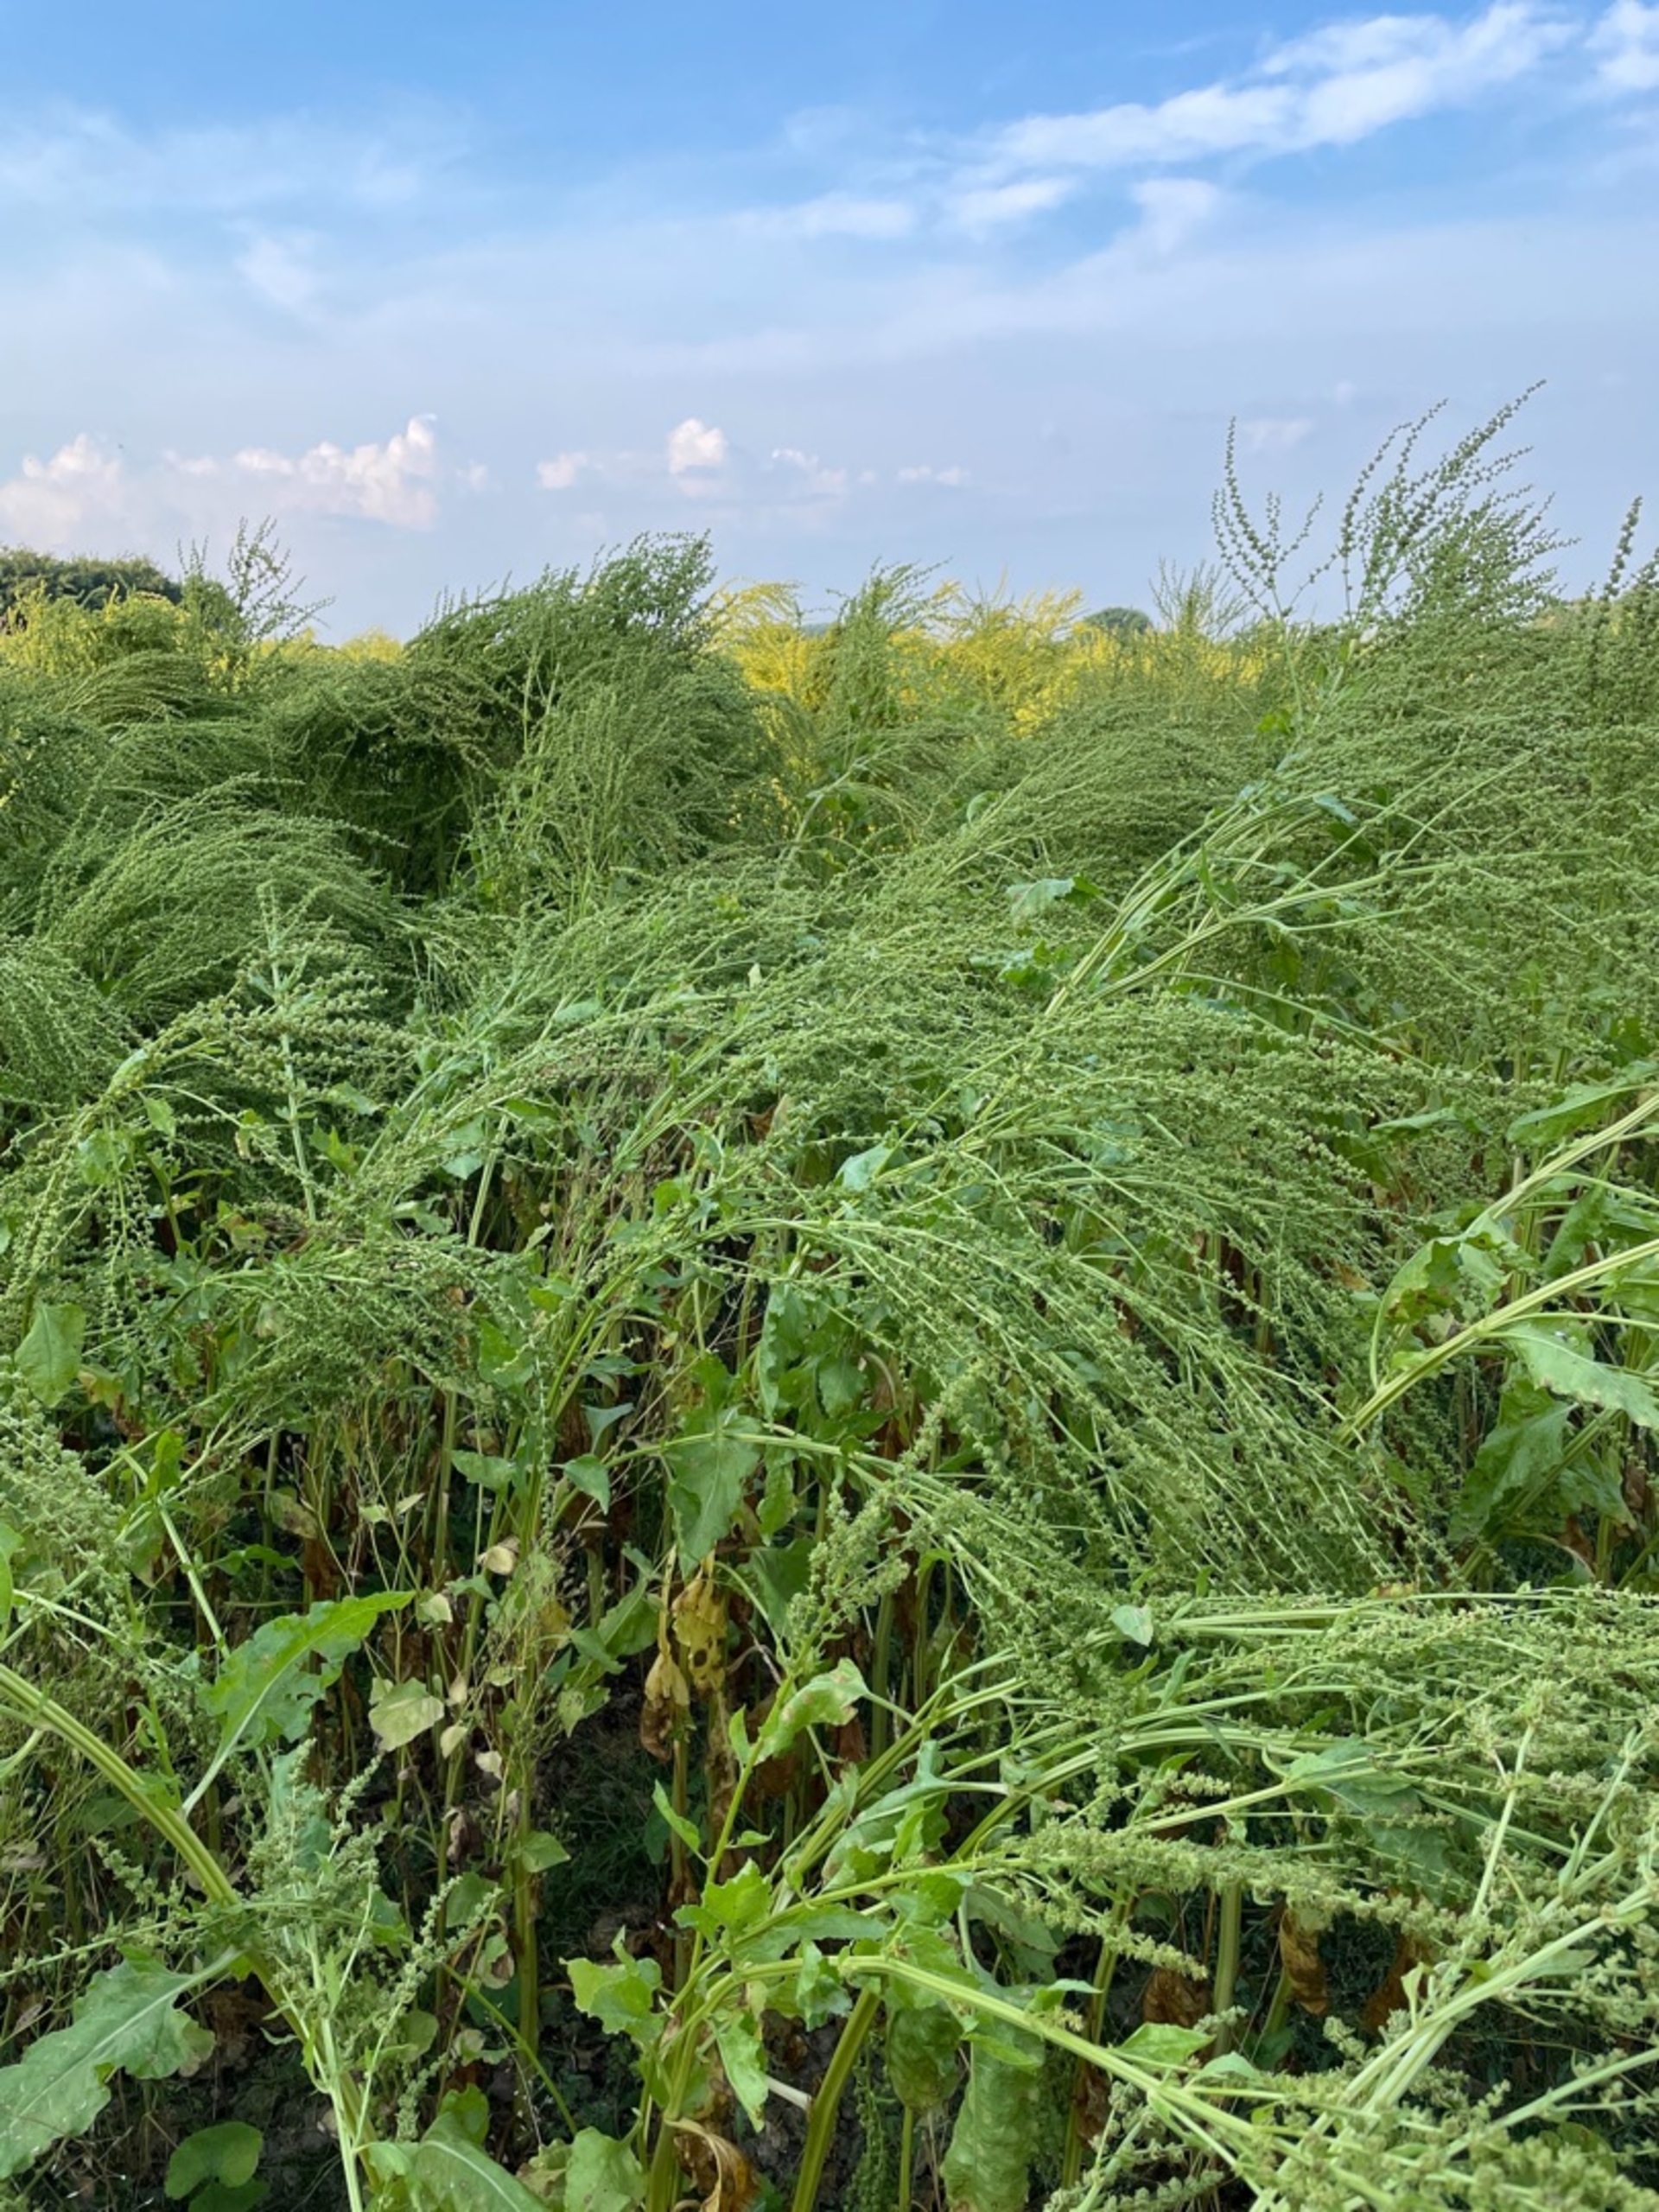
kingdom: Plantae
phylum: Tracheophyta
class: Magnoliopsida
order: Caryophyllales
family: Amaranthaceae
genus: Beta
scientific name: Beta vulgaris
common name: Foder-bede
